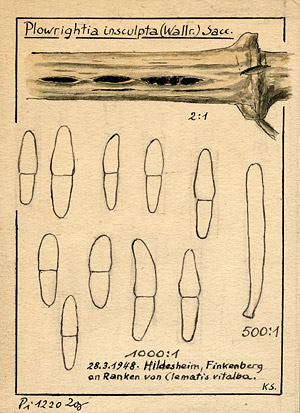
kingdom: Plantae
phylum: Tracheophyta
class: Magnoliopsida
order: Ranunculales
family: Ranunculaceae
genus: Clematis
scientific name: Clematis vitalba
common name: Evergreen clematis
